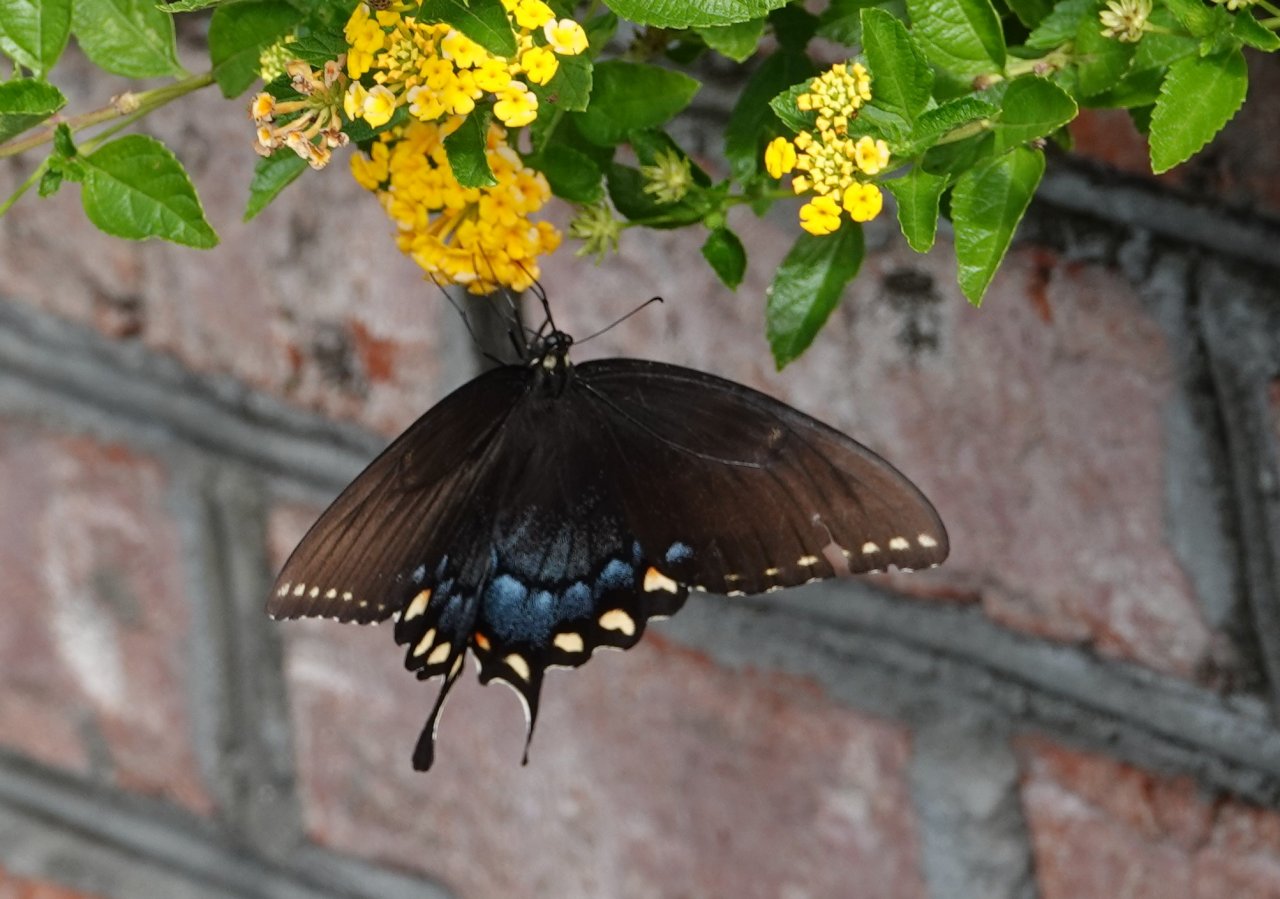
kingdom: Animalia
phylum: Arthropoda
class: Insecta
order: Lepidoptera
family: Papilionidae
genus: Pterourus
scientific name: Pterourus glaucus
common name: Eastern Tiger Swallowtail
